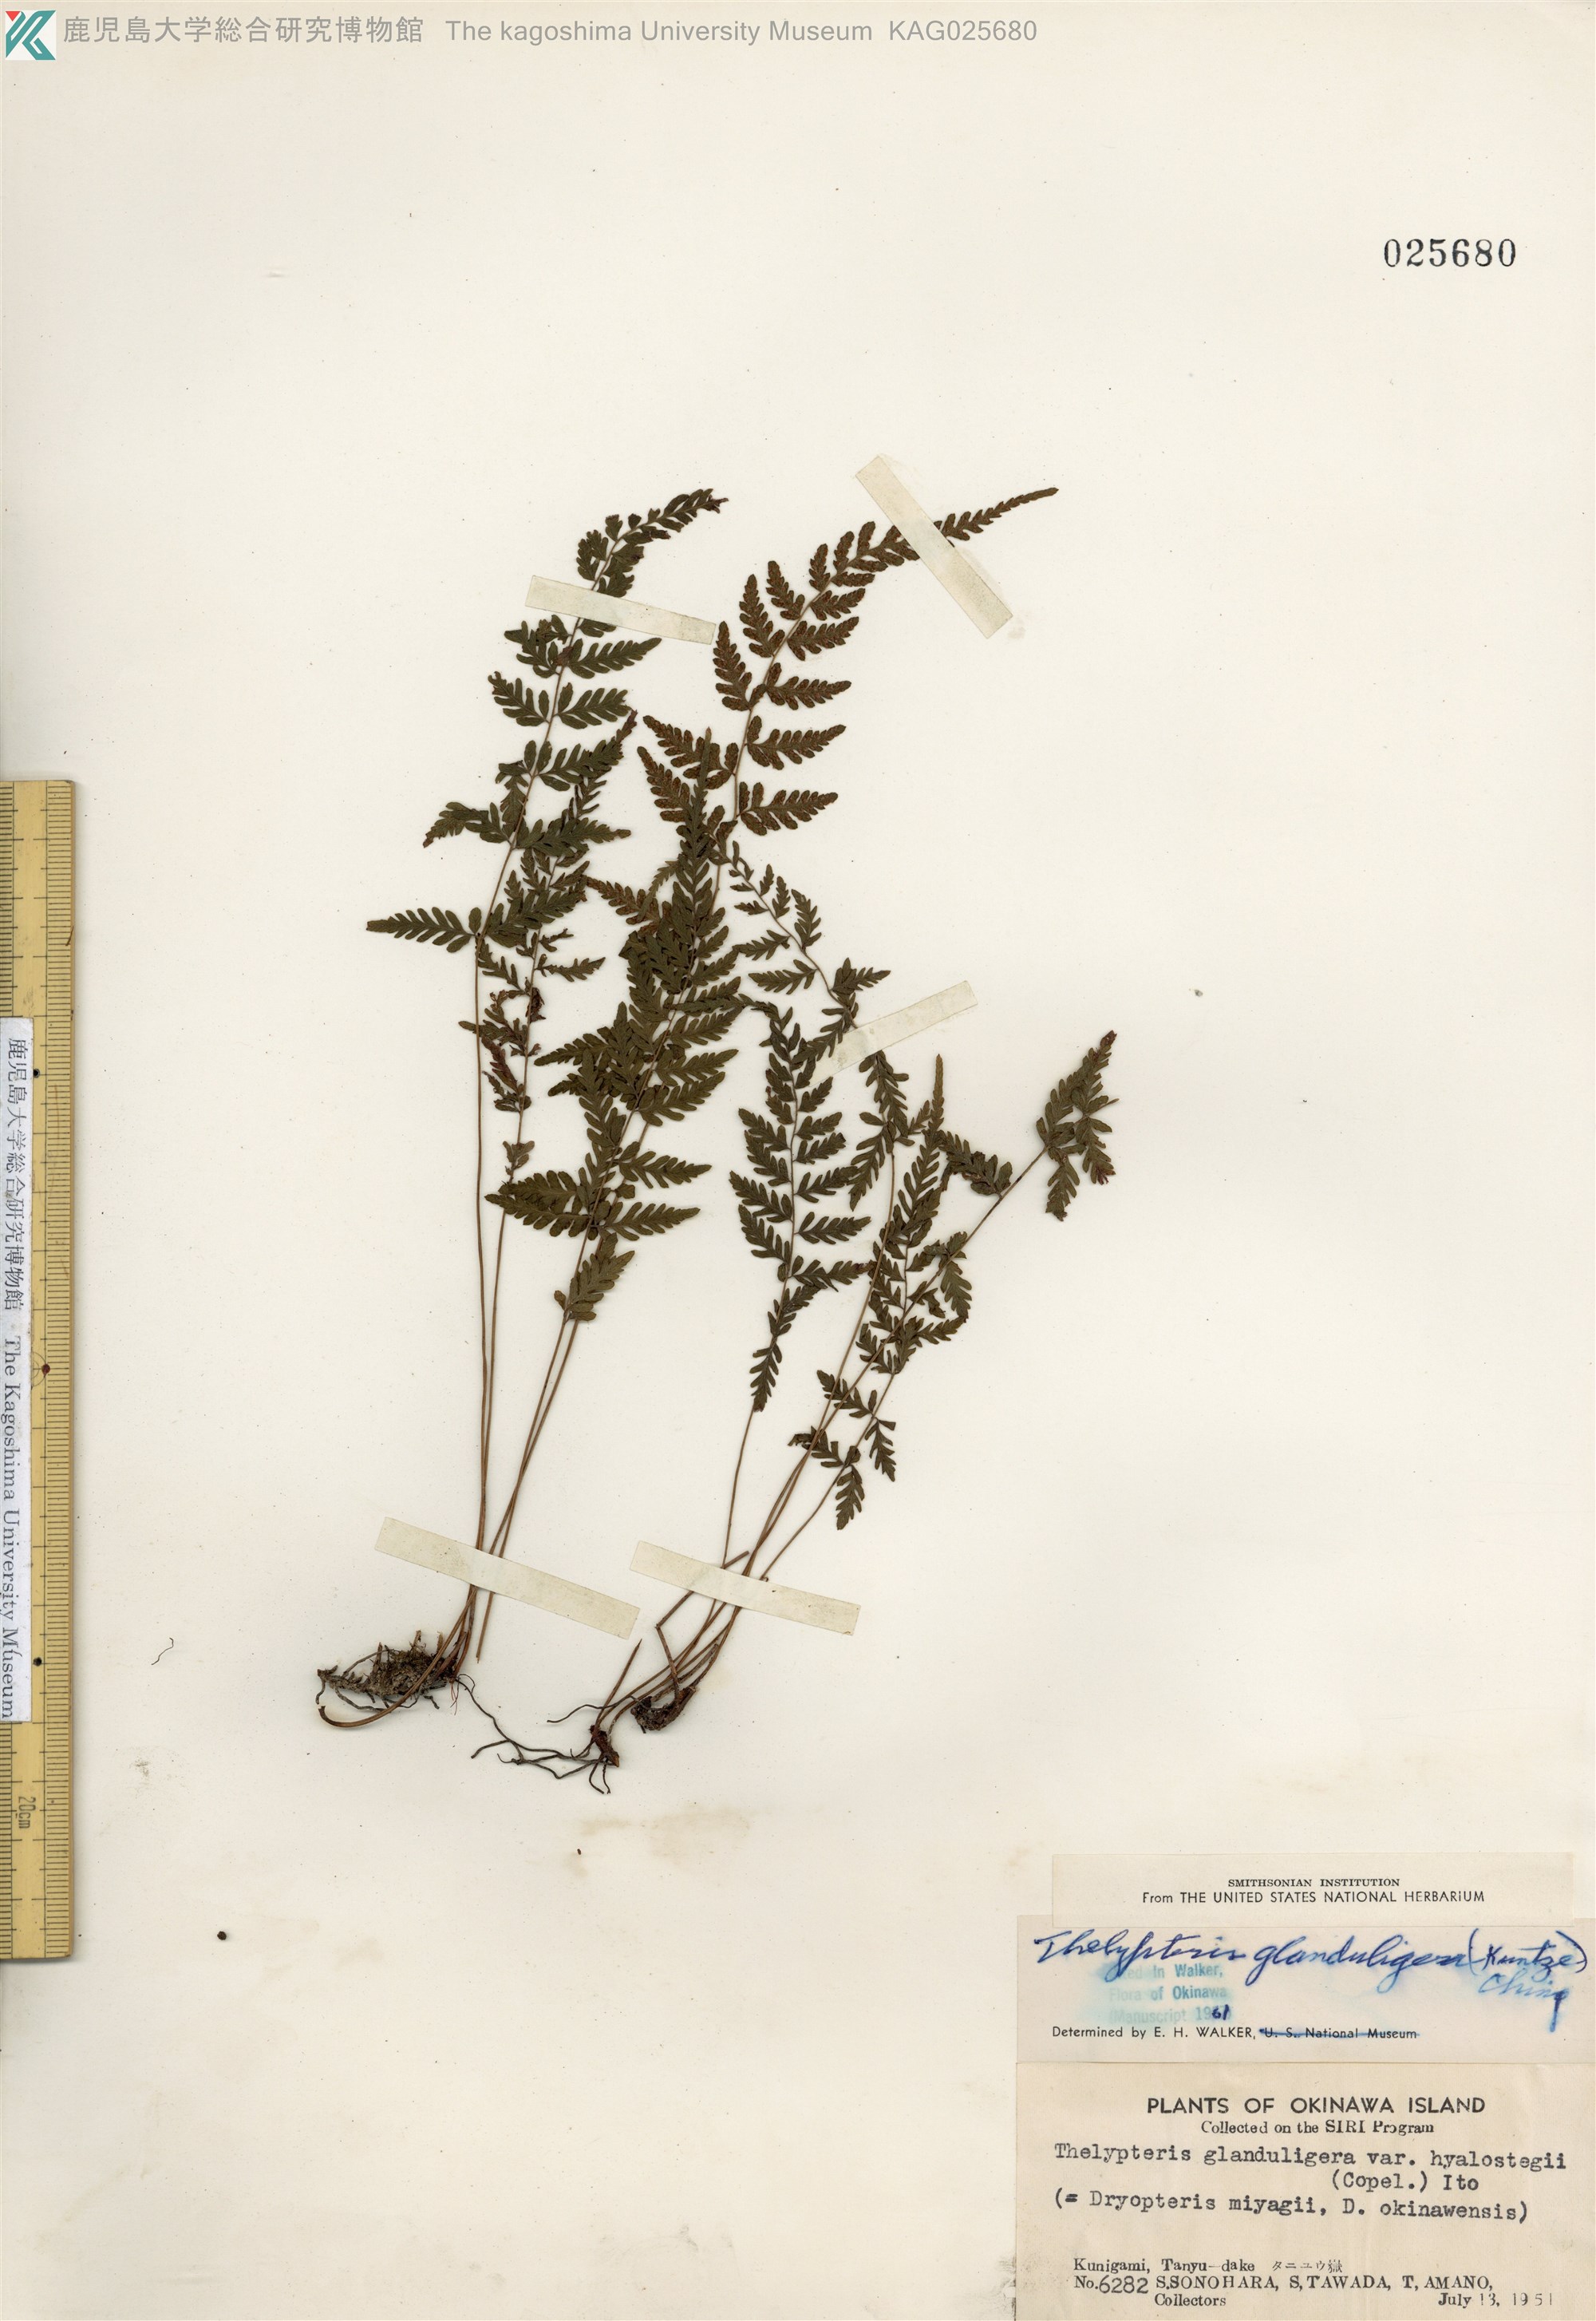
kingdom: Plantae
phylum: Tracheophyta
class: Polypodiopsida
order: Polypodiales
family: Thelypteridaceae
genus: Amauropelta
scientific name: Amauropelta angustifrons
